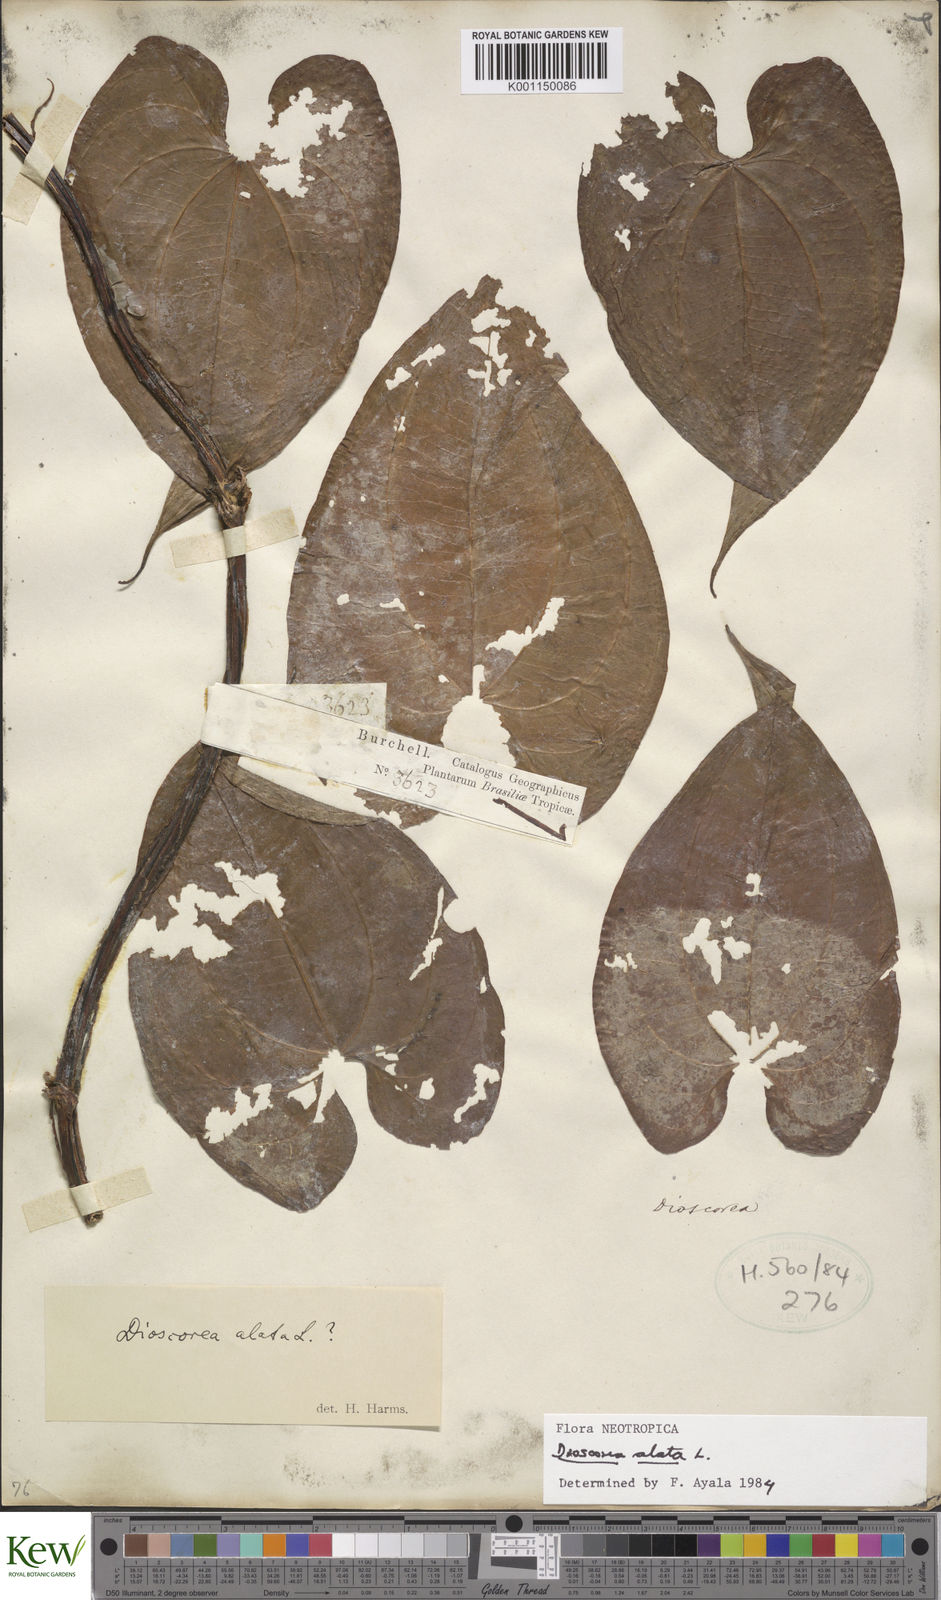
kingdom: Plantae
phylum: Tracheophyta
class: Liliopsida
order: Dioscoreales
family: Dioscoreaceae
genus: Dioscorea
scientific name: Dioscorea alata
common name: Water yam
